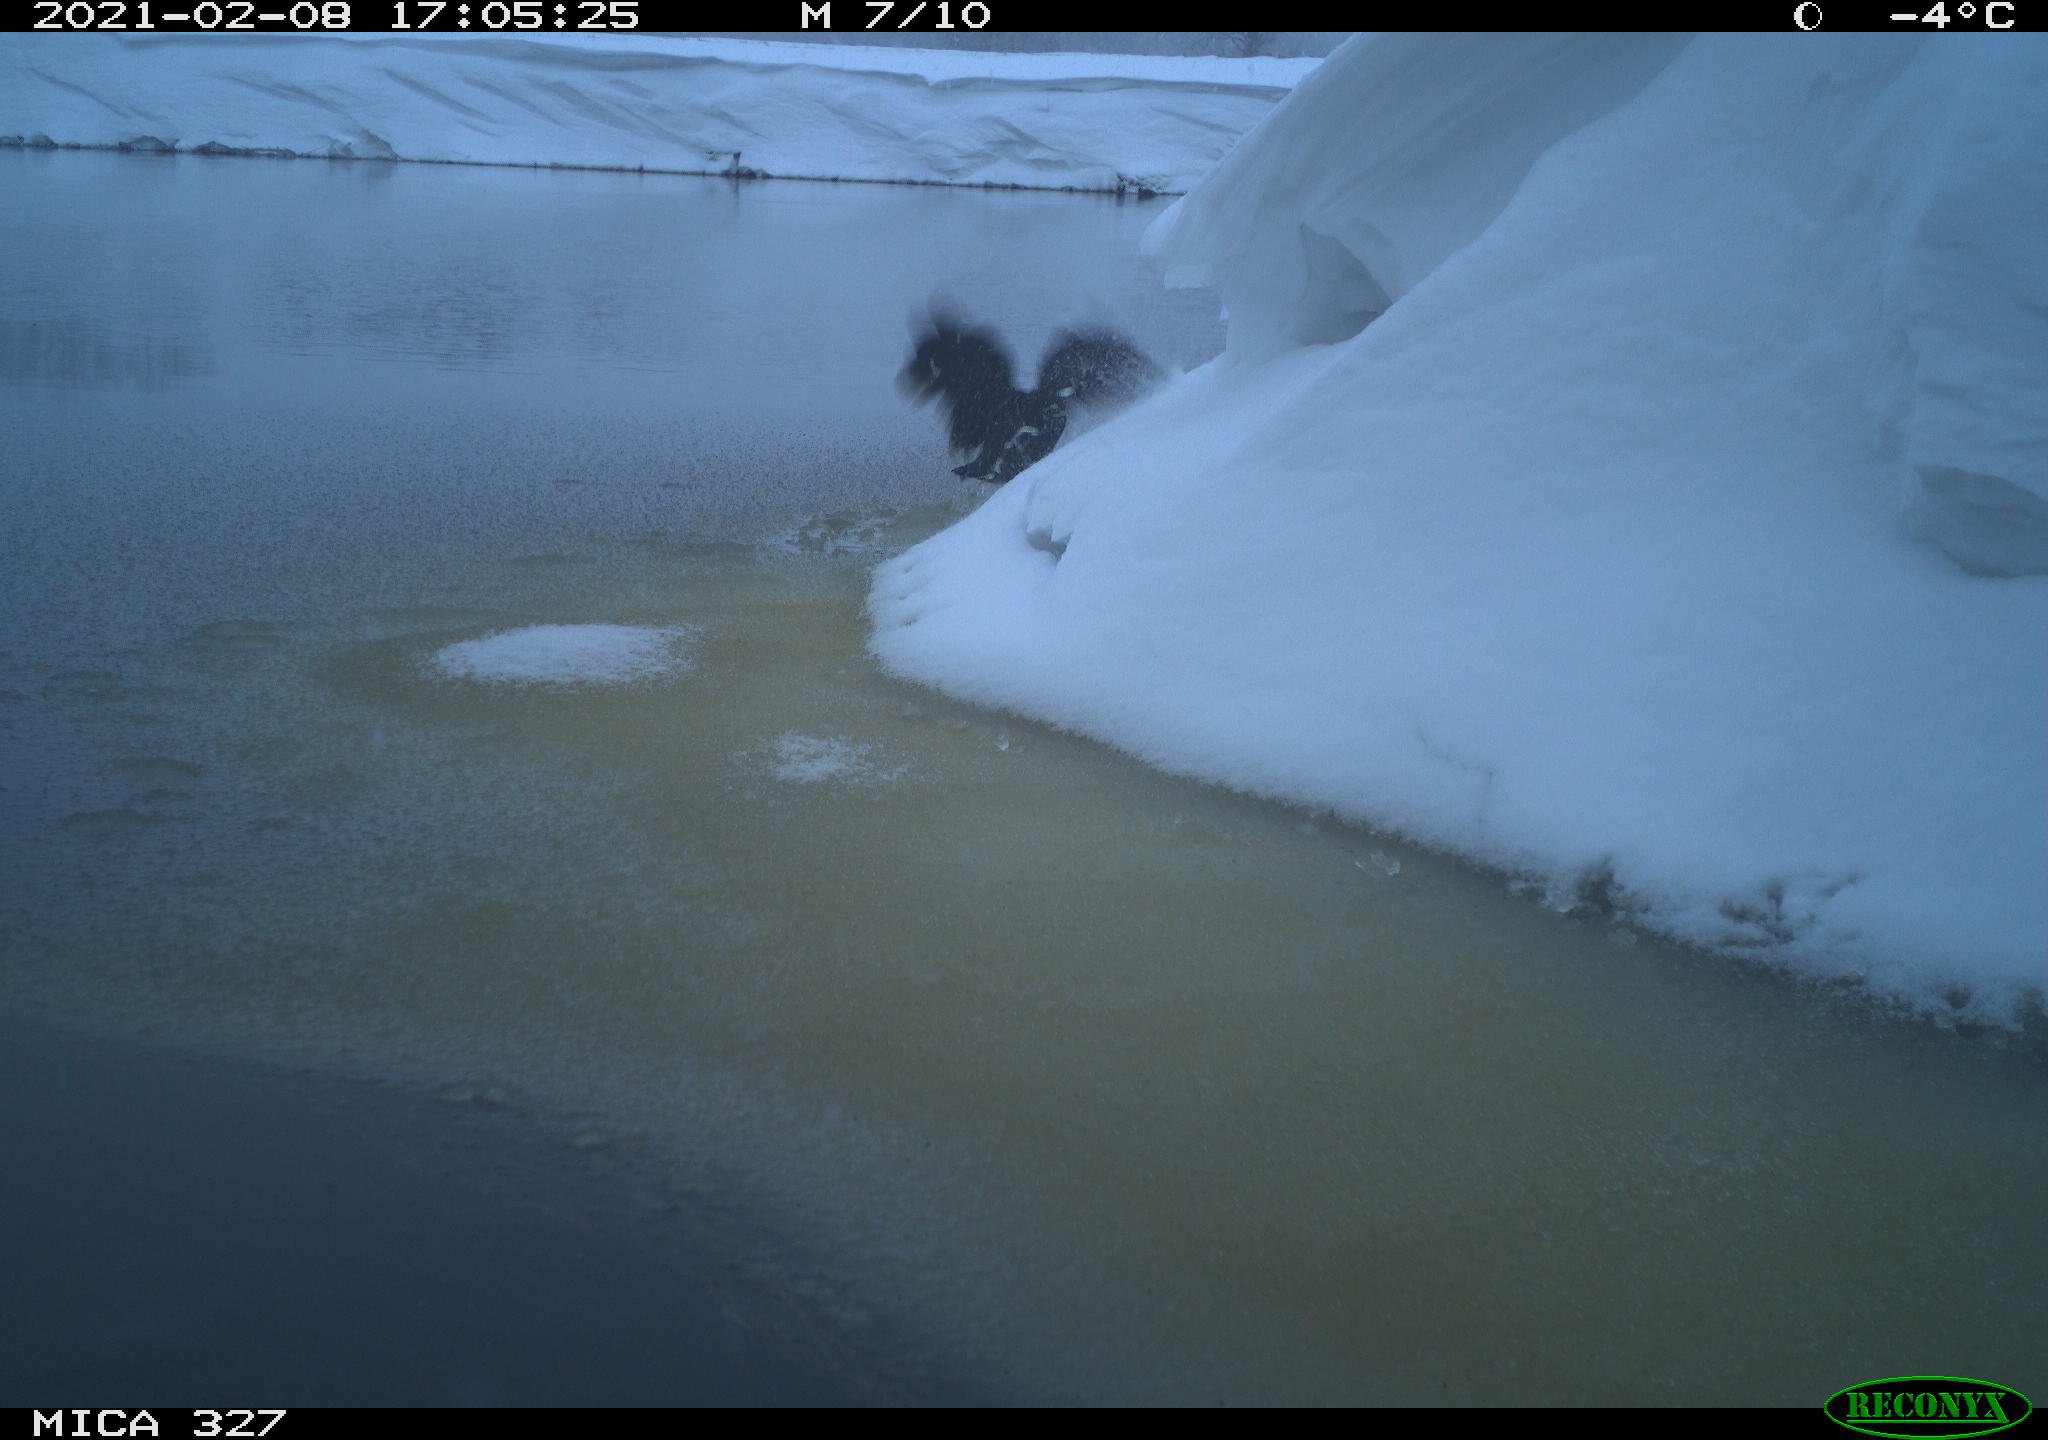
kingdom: Animalia
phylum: Chordata
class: Aves
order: Gruiformes
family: Rallidae
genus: Gallinula
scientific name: Gallinula chloropus
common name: Common moorhen
